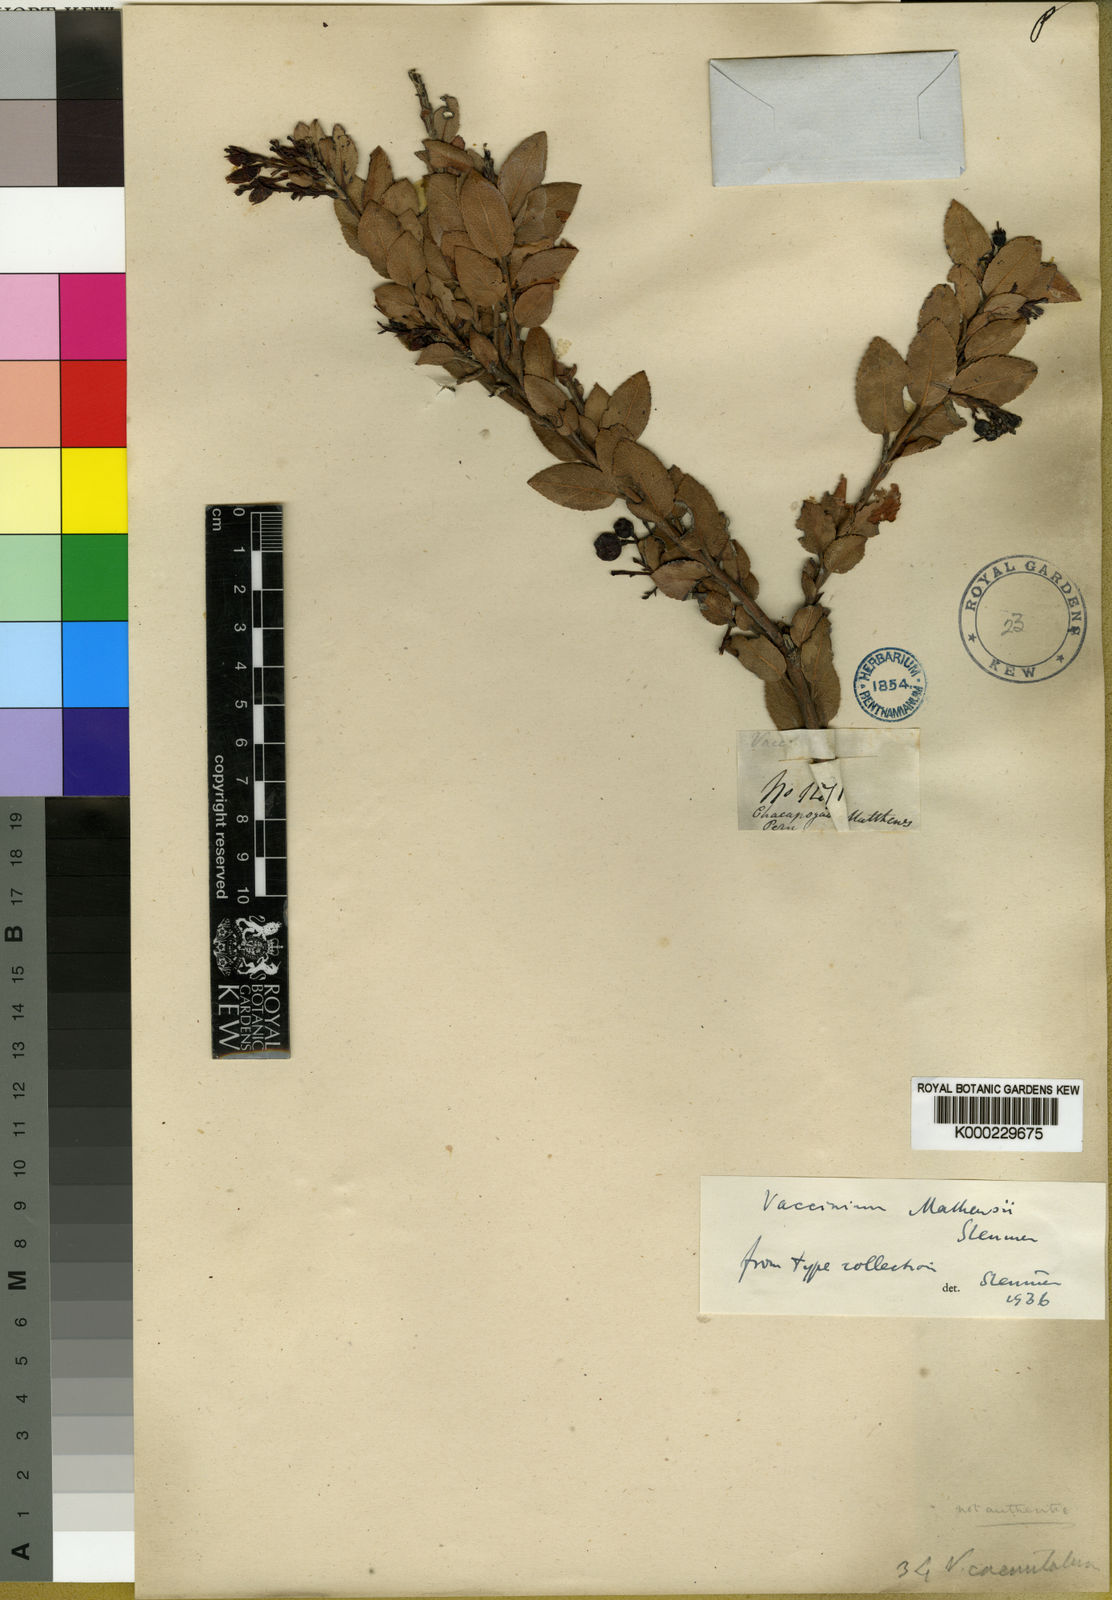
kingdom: Plantae
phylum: Tracheophyta
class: Magnoliopsida
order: Ericales
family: Ericaceae
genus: Vaccinium
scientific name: Vaccinium mathewsii
